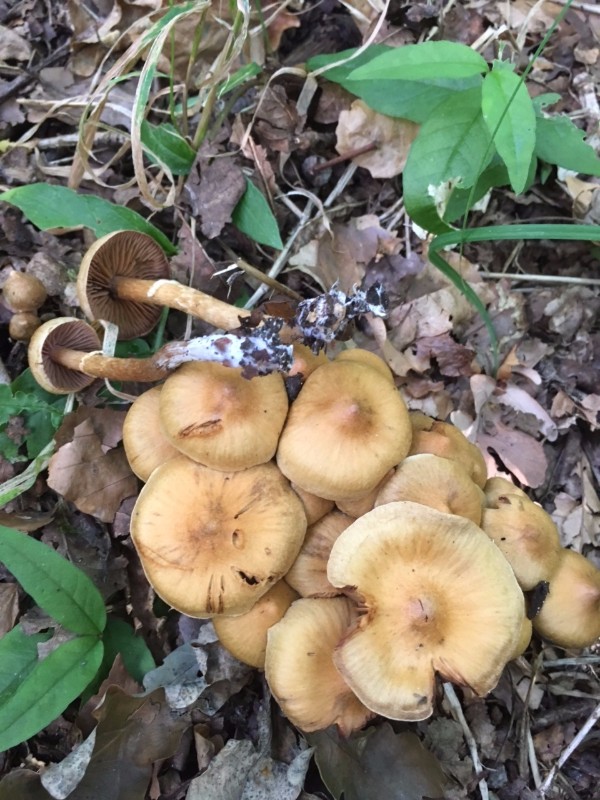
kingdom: Fungi
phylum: Basidiomycota
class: Agaricomycetes
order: Agaricales
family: Cortinariaceae
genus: Cortinarius
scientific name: Cortinarius lacustris
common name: siennapuklet slørhat
